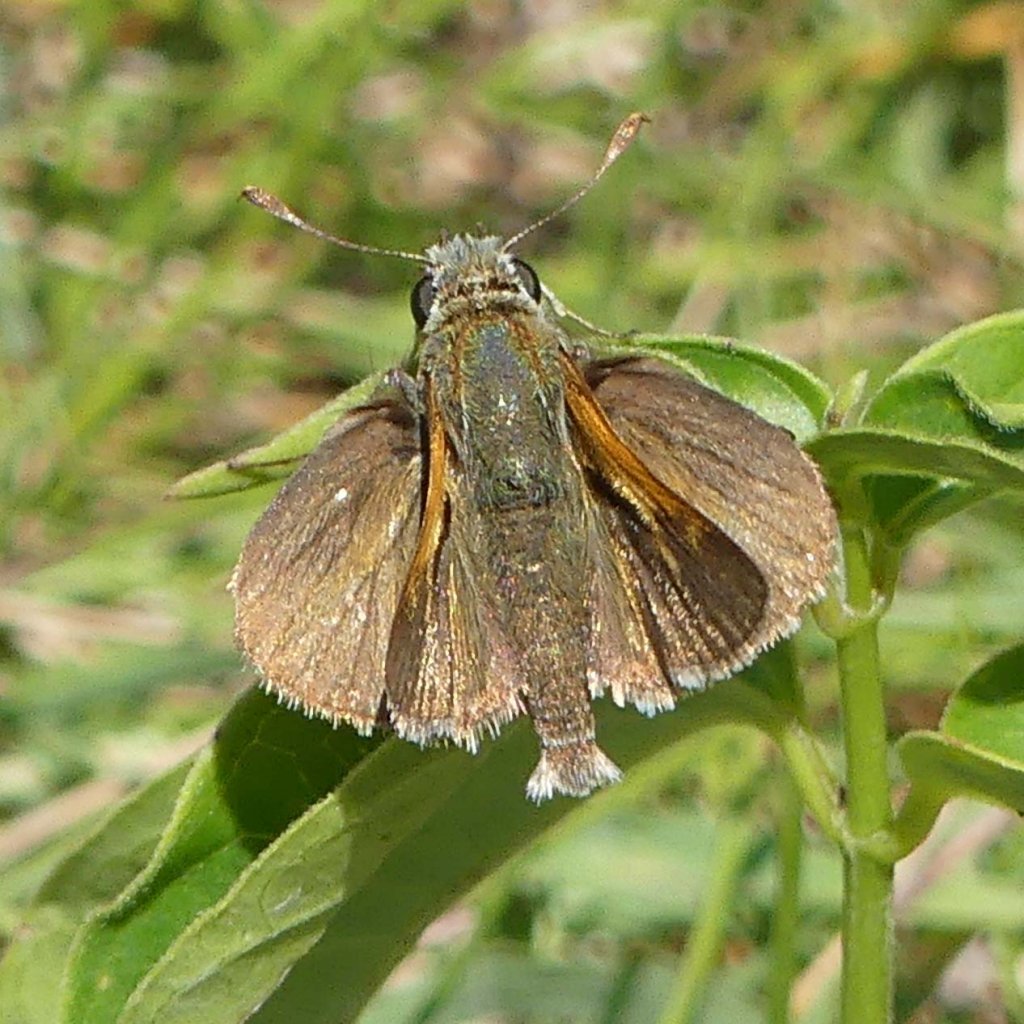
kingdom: Animalia
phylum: Arthropoda
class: Insecta
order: Lepidoptera
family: Hesperiidae
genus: Polites
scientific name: Polites themistocles
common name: Tawny-edged Skipper
